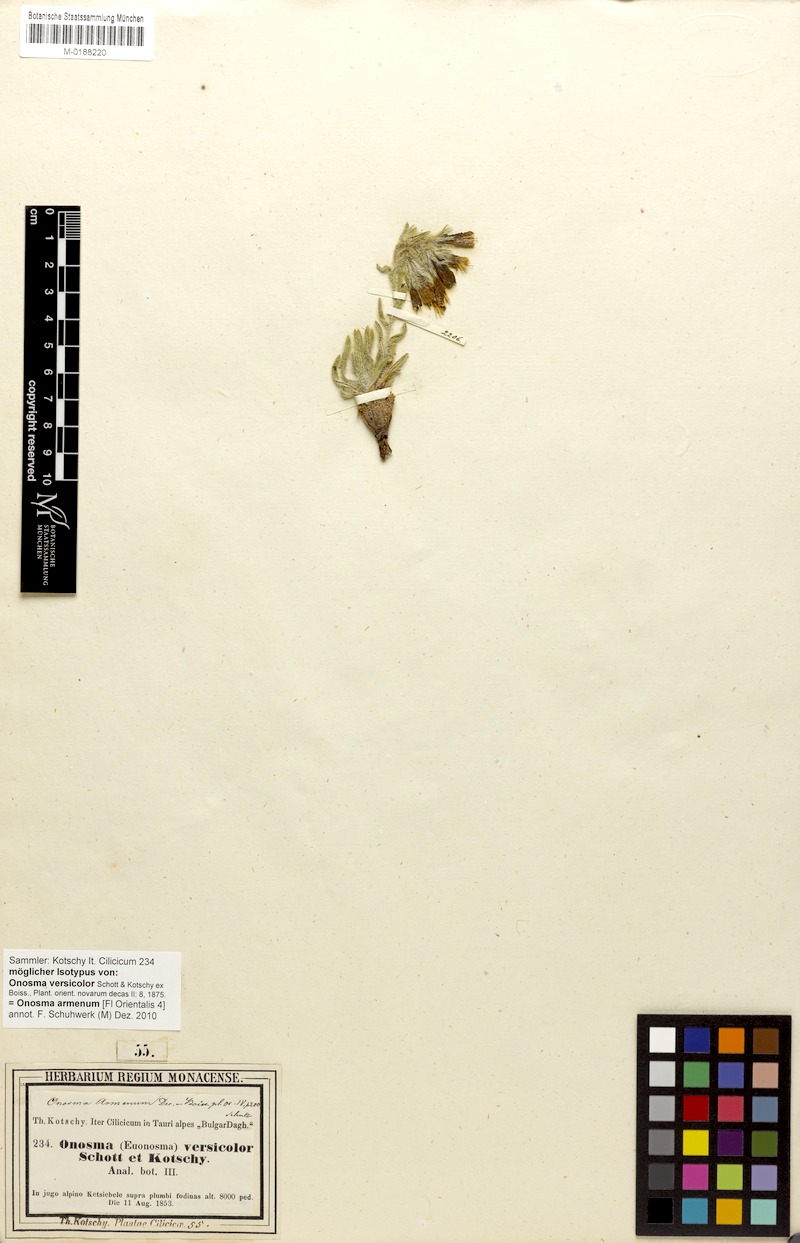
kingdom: Plantae
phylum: Tracheophyta
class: Magnoliopsida
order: Boraginales
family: Boraginaceae
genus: Onosma
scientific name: Onosma armena
